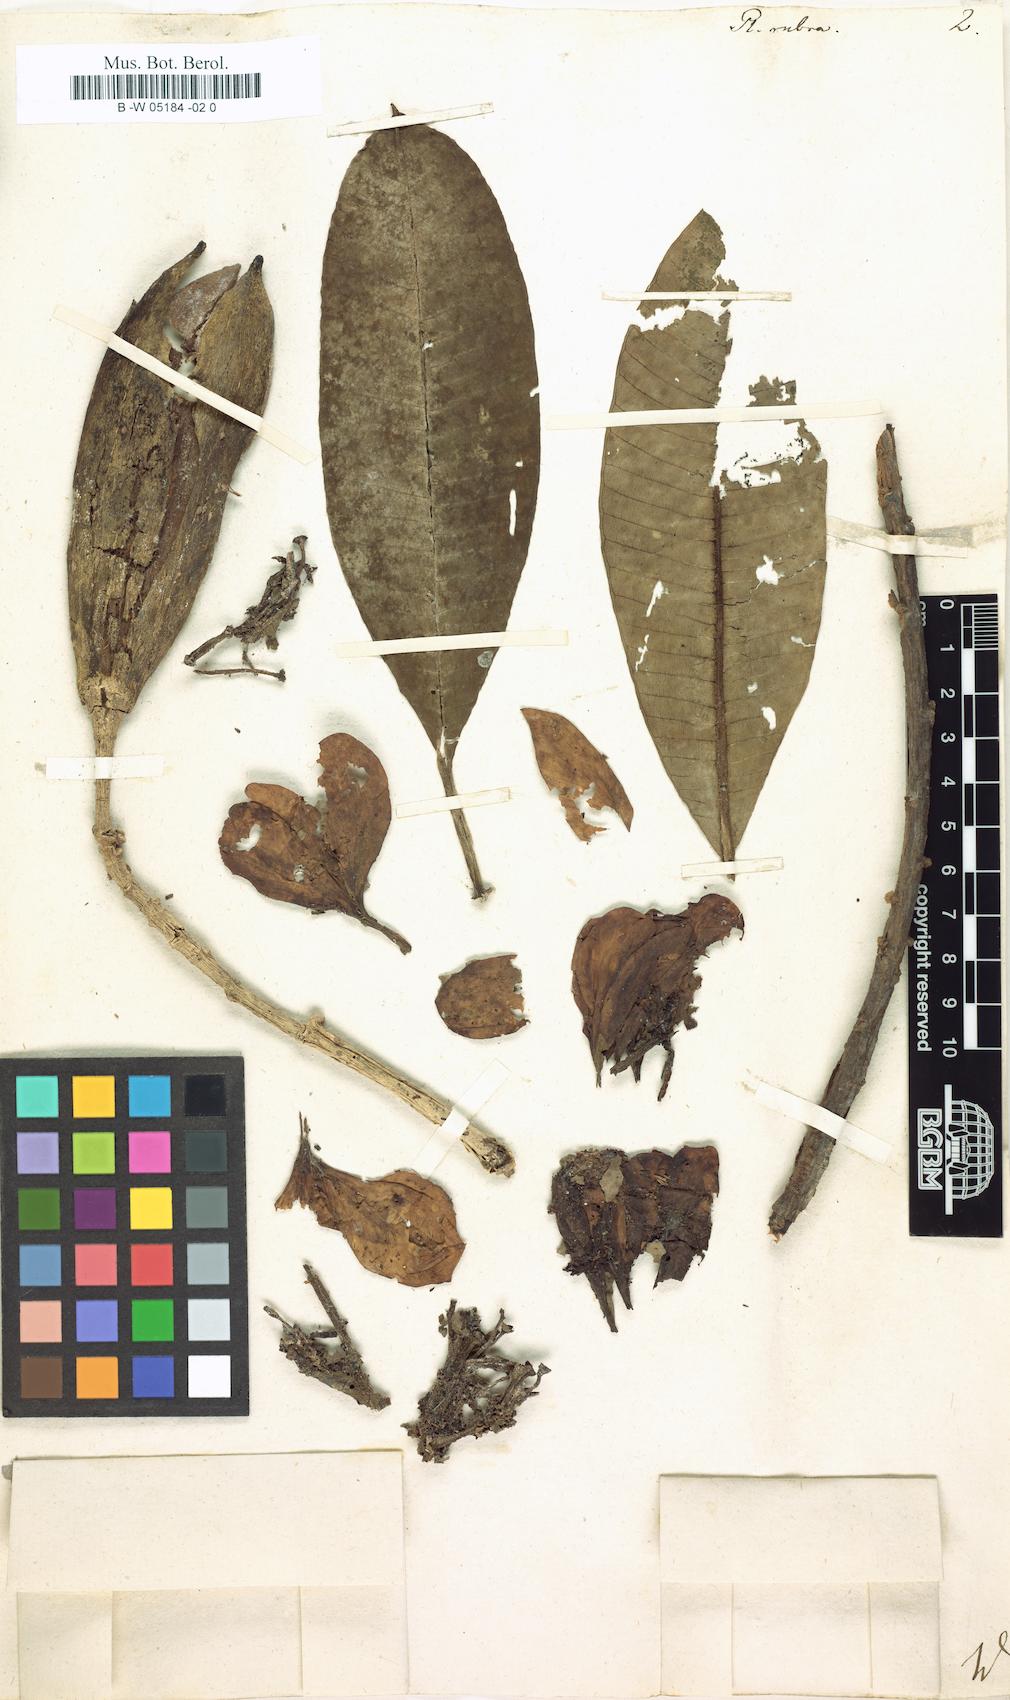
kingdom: Plantae
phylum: Tracheophyta
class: Magnoliopsida
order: Gentianales
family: Apocynaceae
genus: Plumeria
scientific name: Plumeria rubra
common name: Pagoda-tree
